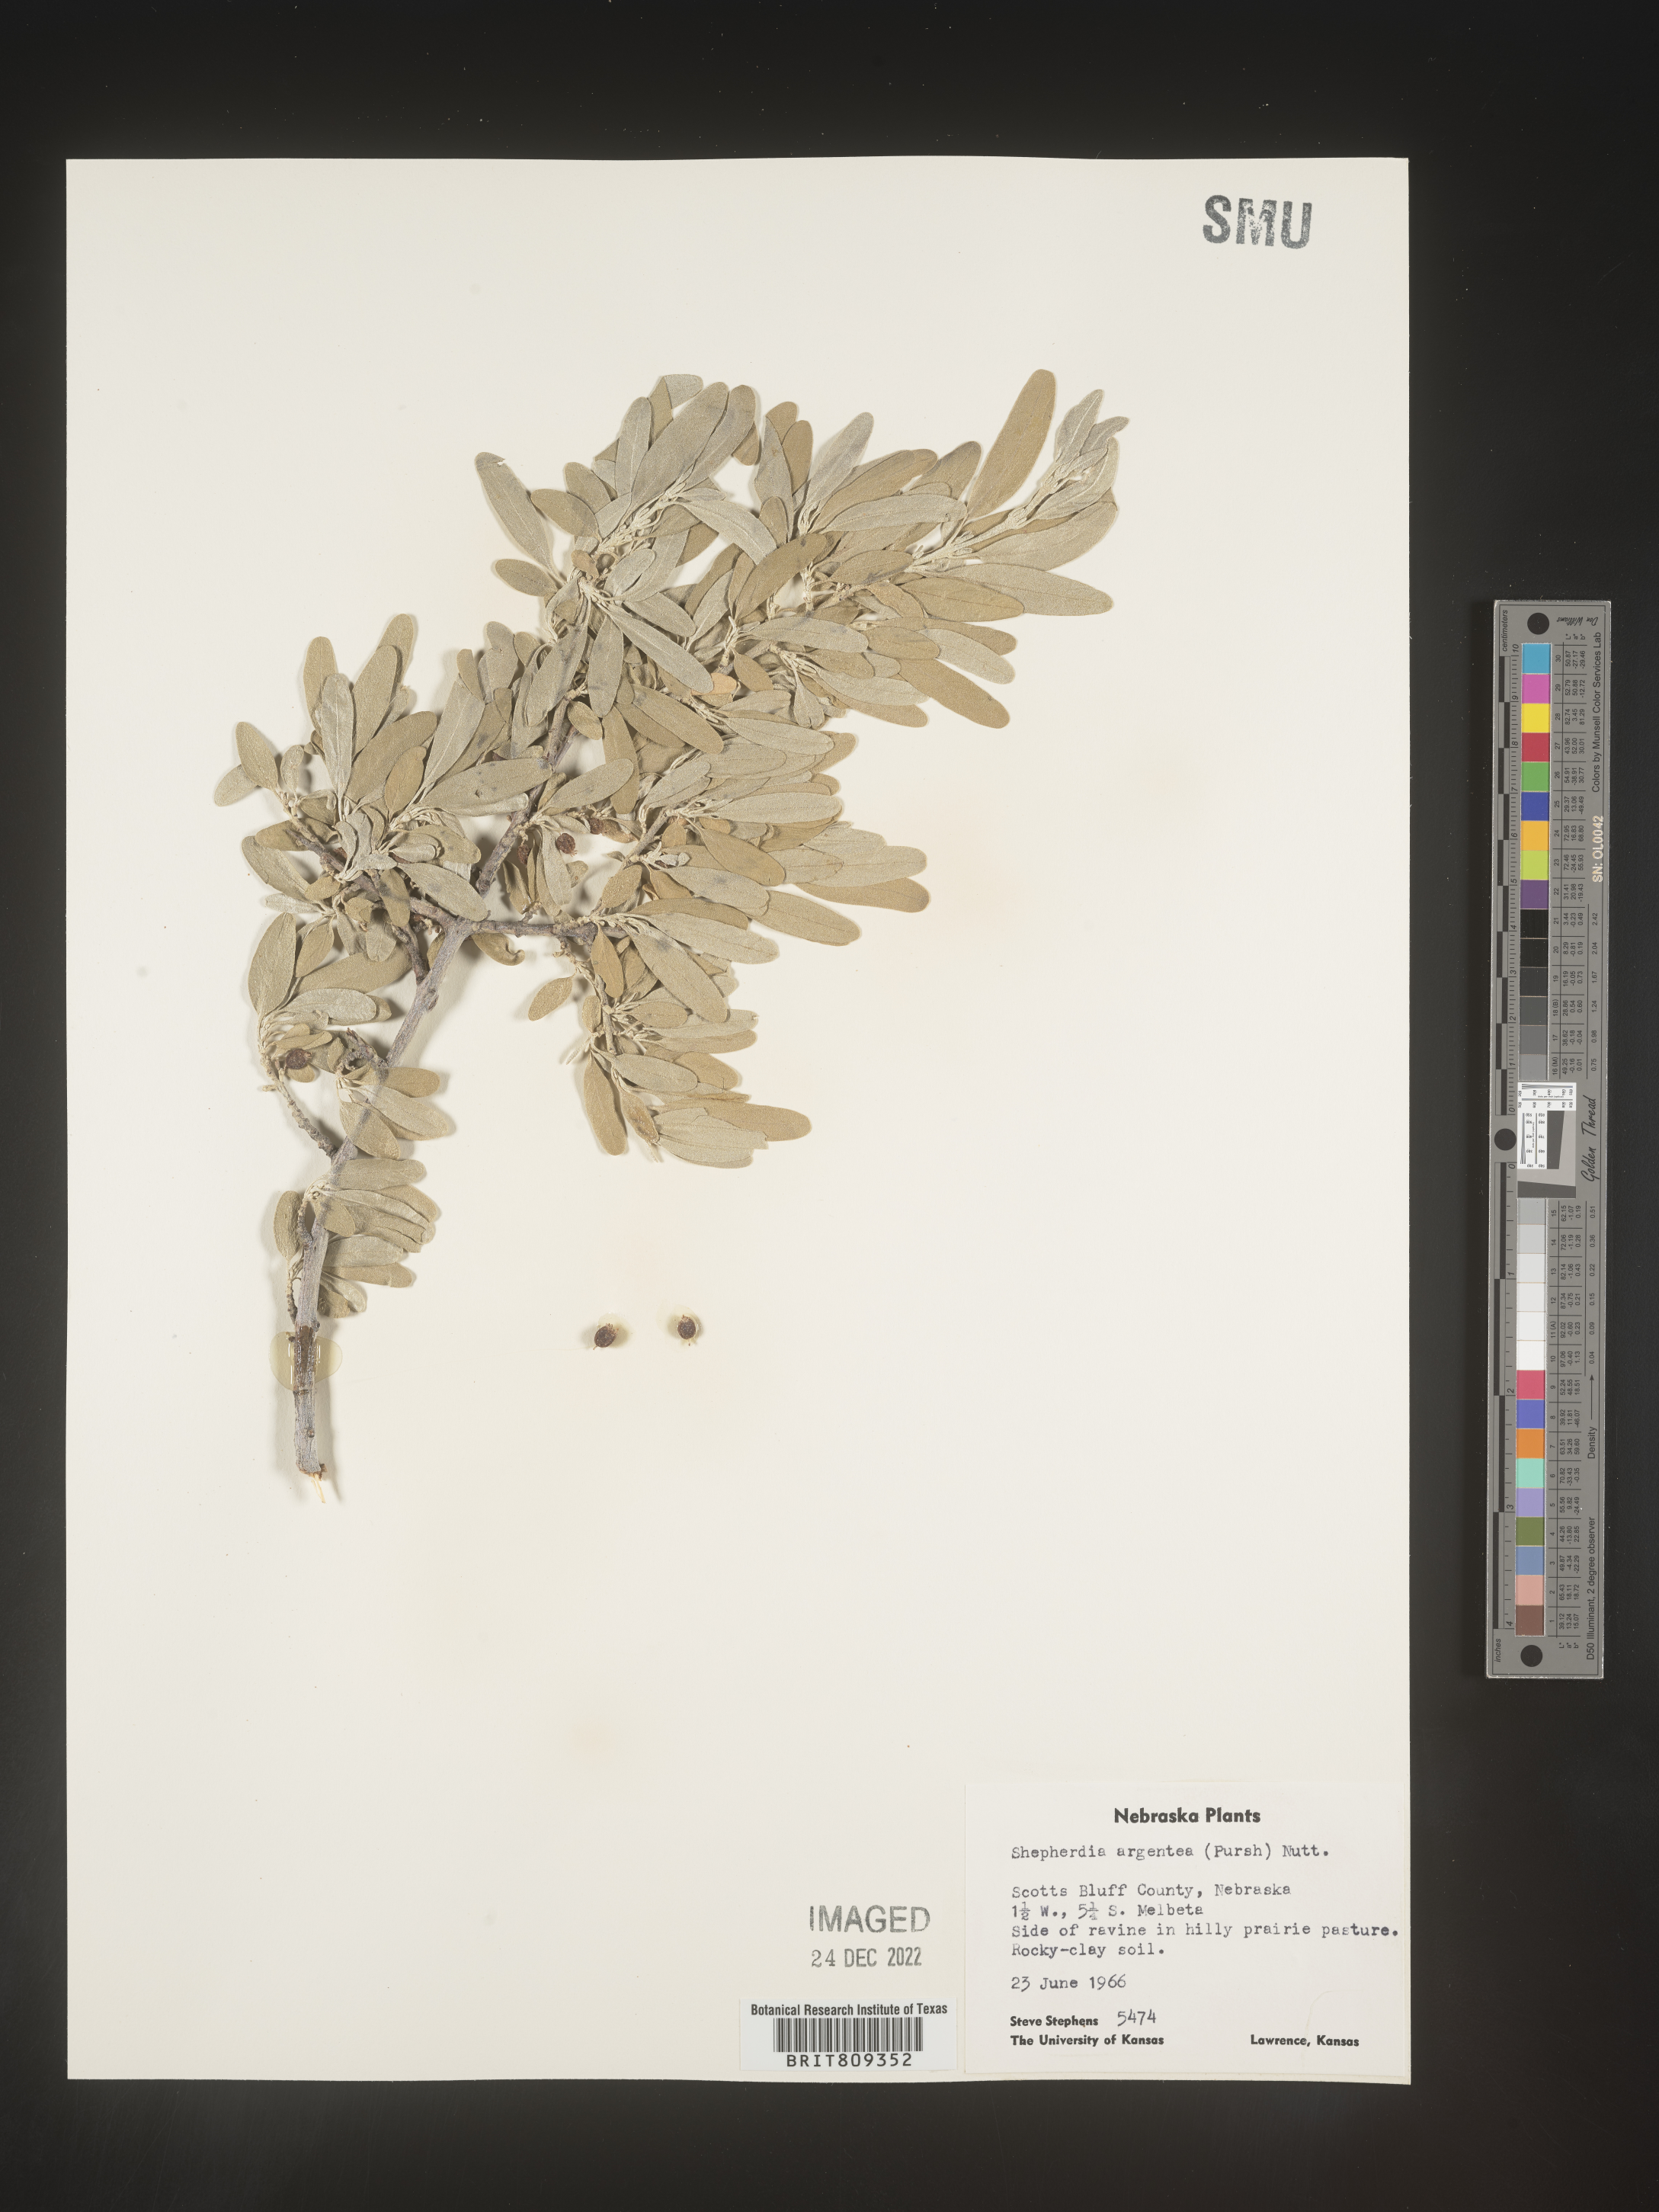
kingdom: Plantae
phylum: Tracheophyta
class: Magnoliopsida
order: Rosales
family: Elaeagnaceae
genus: Shepherdia
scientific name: Shepherdia argentea
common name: Silver buffaloberry
